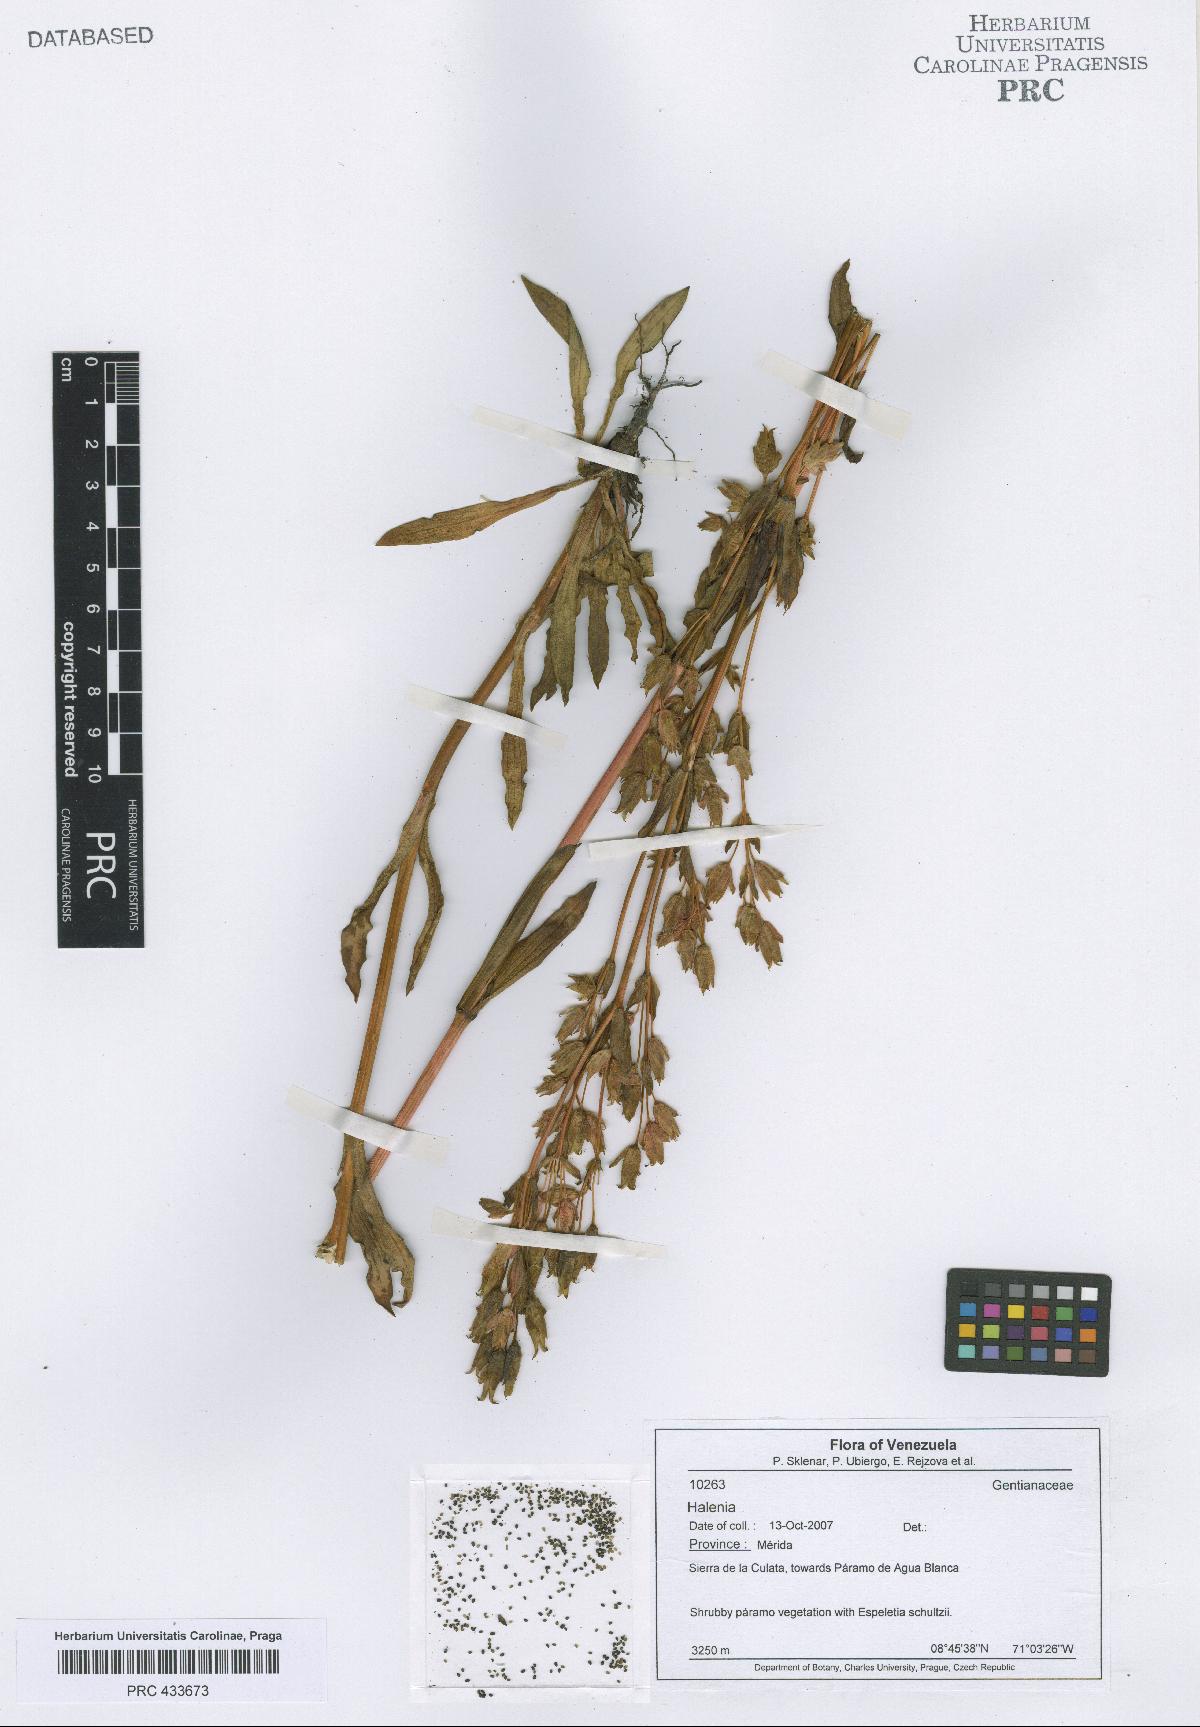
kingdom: Plantae
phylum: Tracheophyta
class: Magnoliopsida
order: Gentianales
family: Gentianaceae
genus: Halenia
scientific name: Halenia
